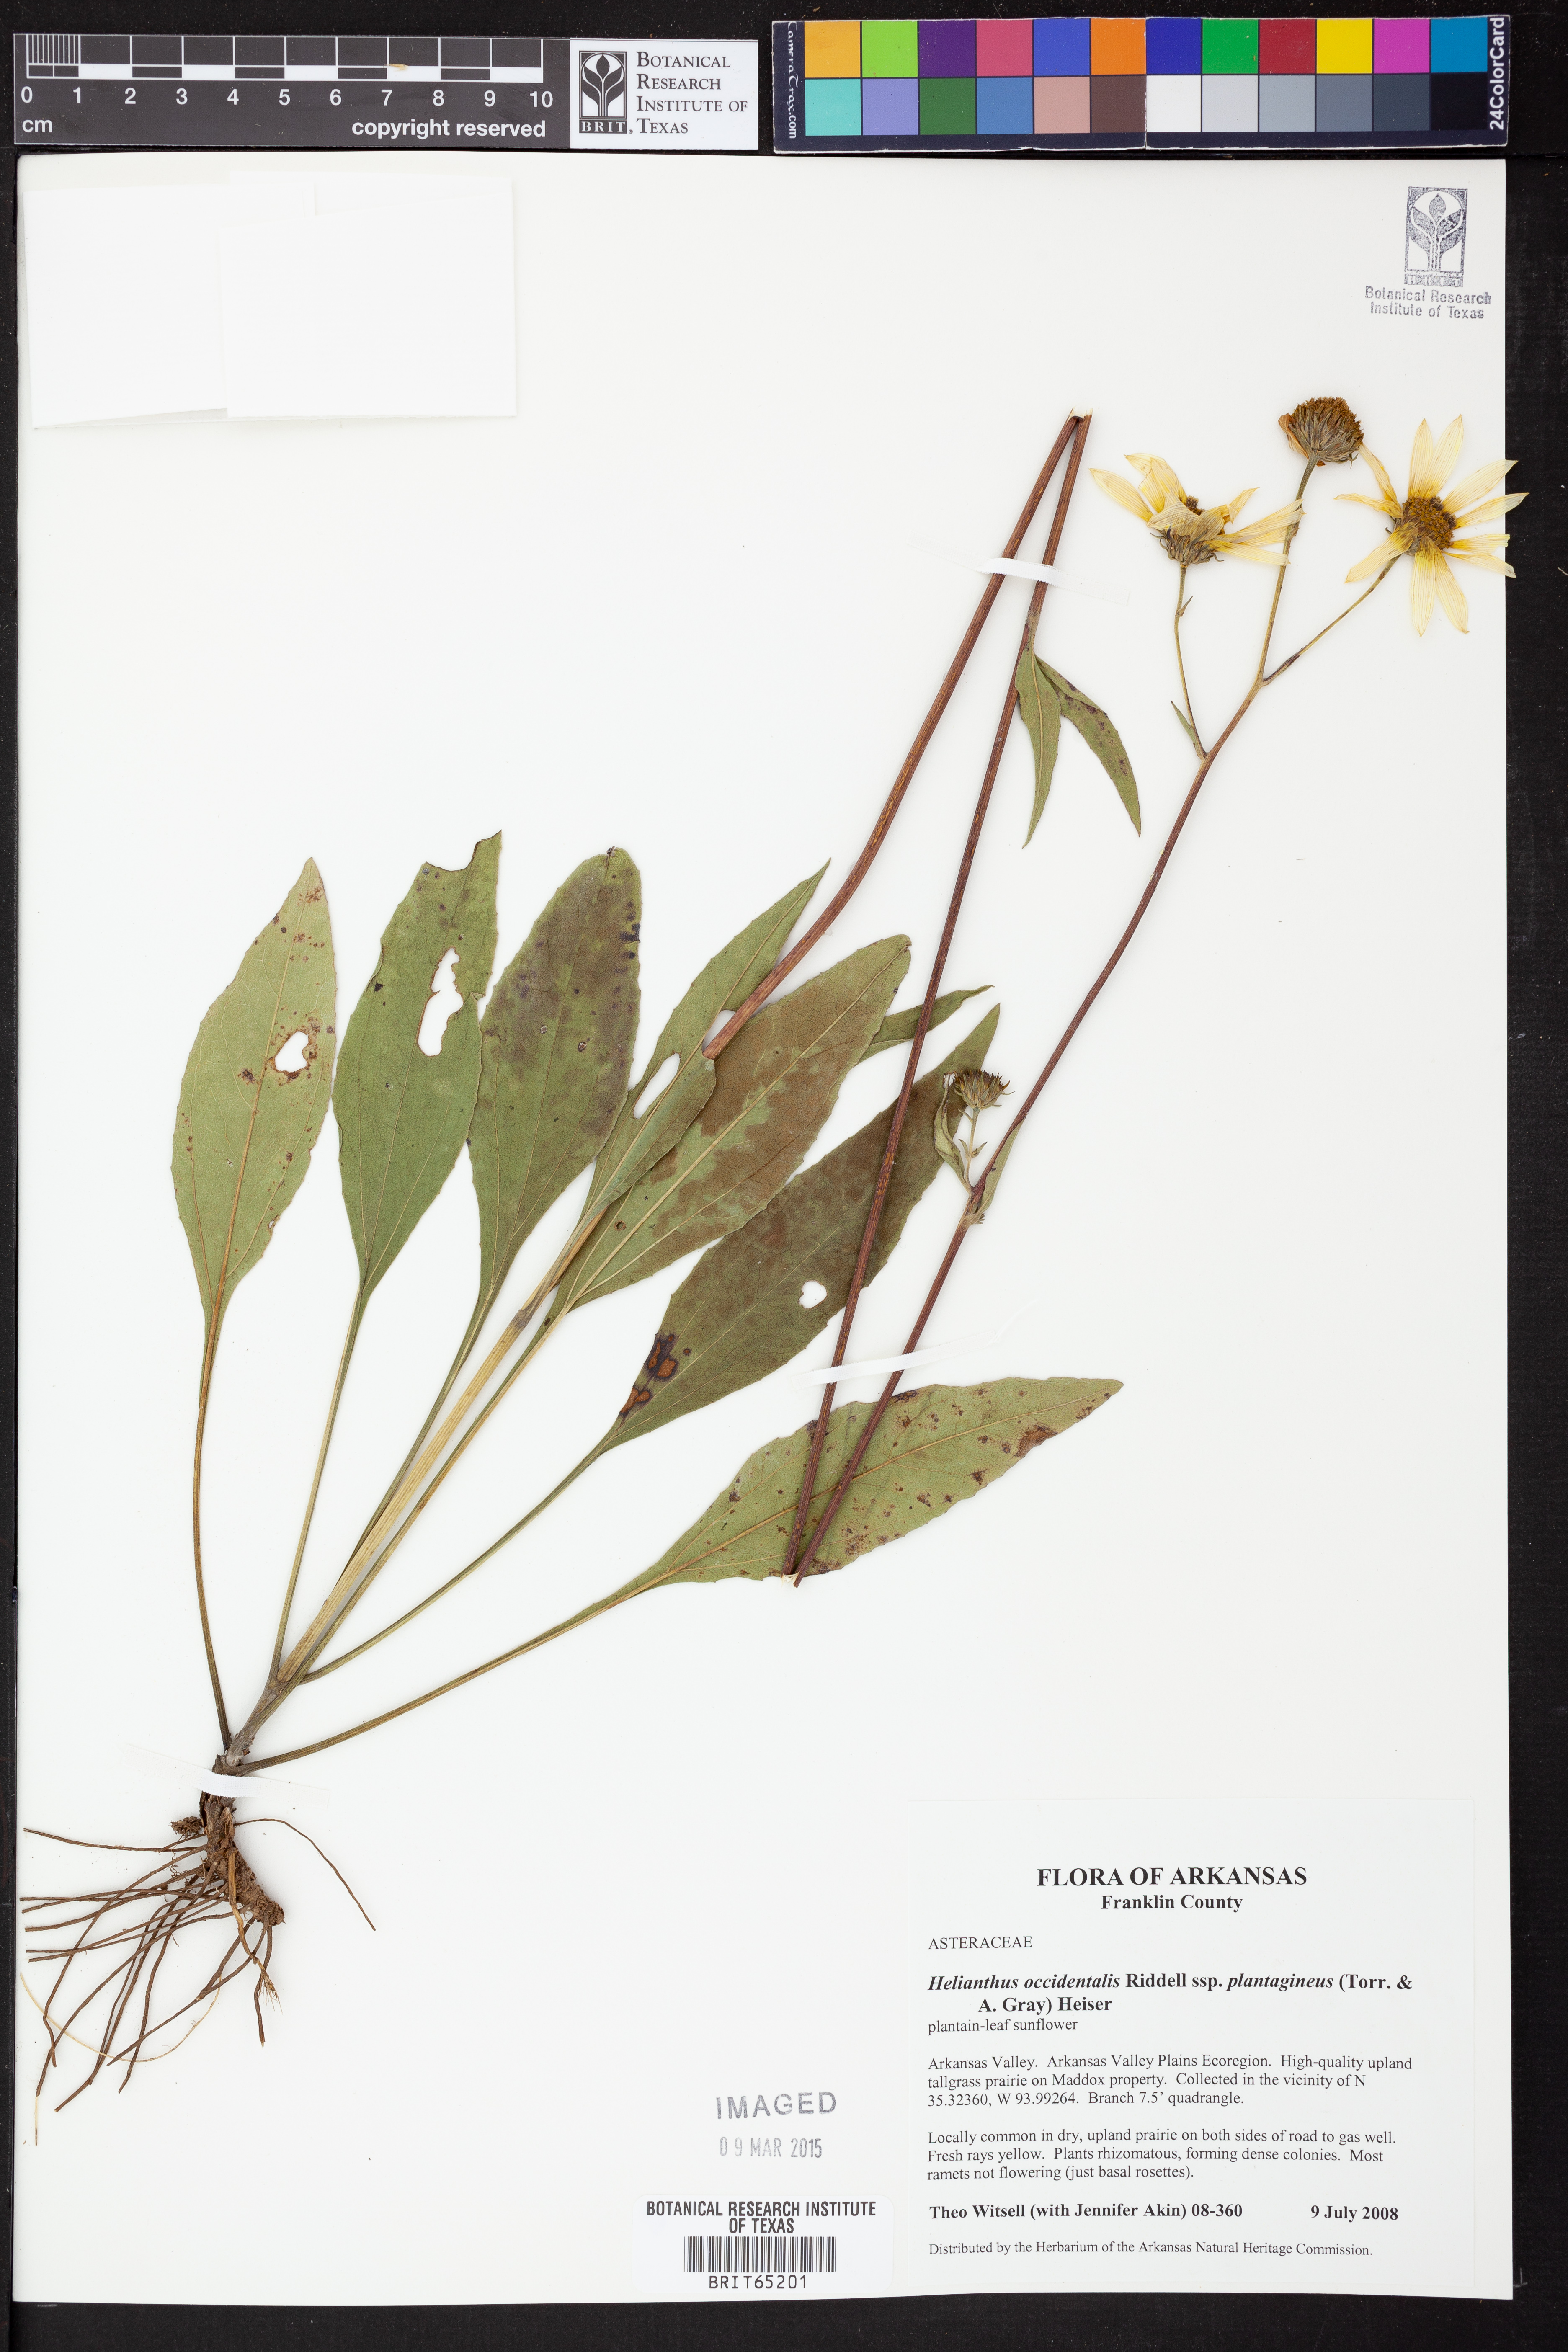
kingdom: Plantae
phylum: Tracheophyta
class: Magnoliopsida
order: Asterales
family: Asteraceae
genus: Helianthus
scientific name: Helianthus occidentalis
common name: Western sunflower
